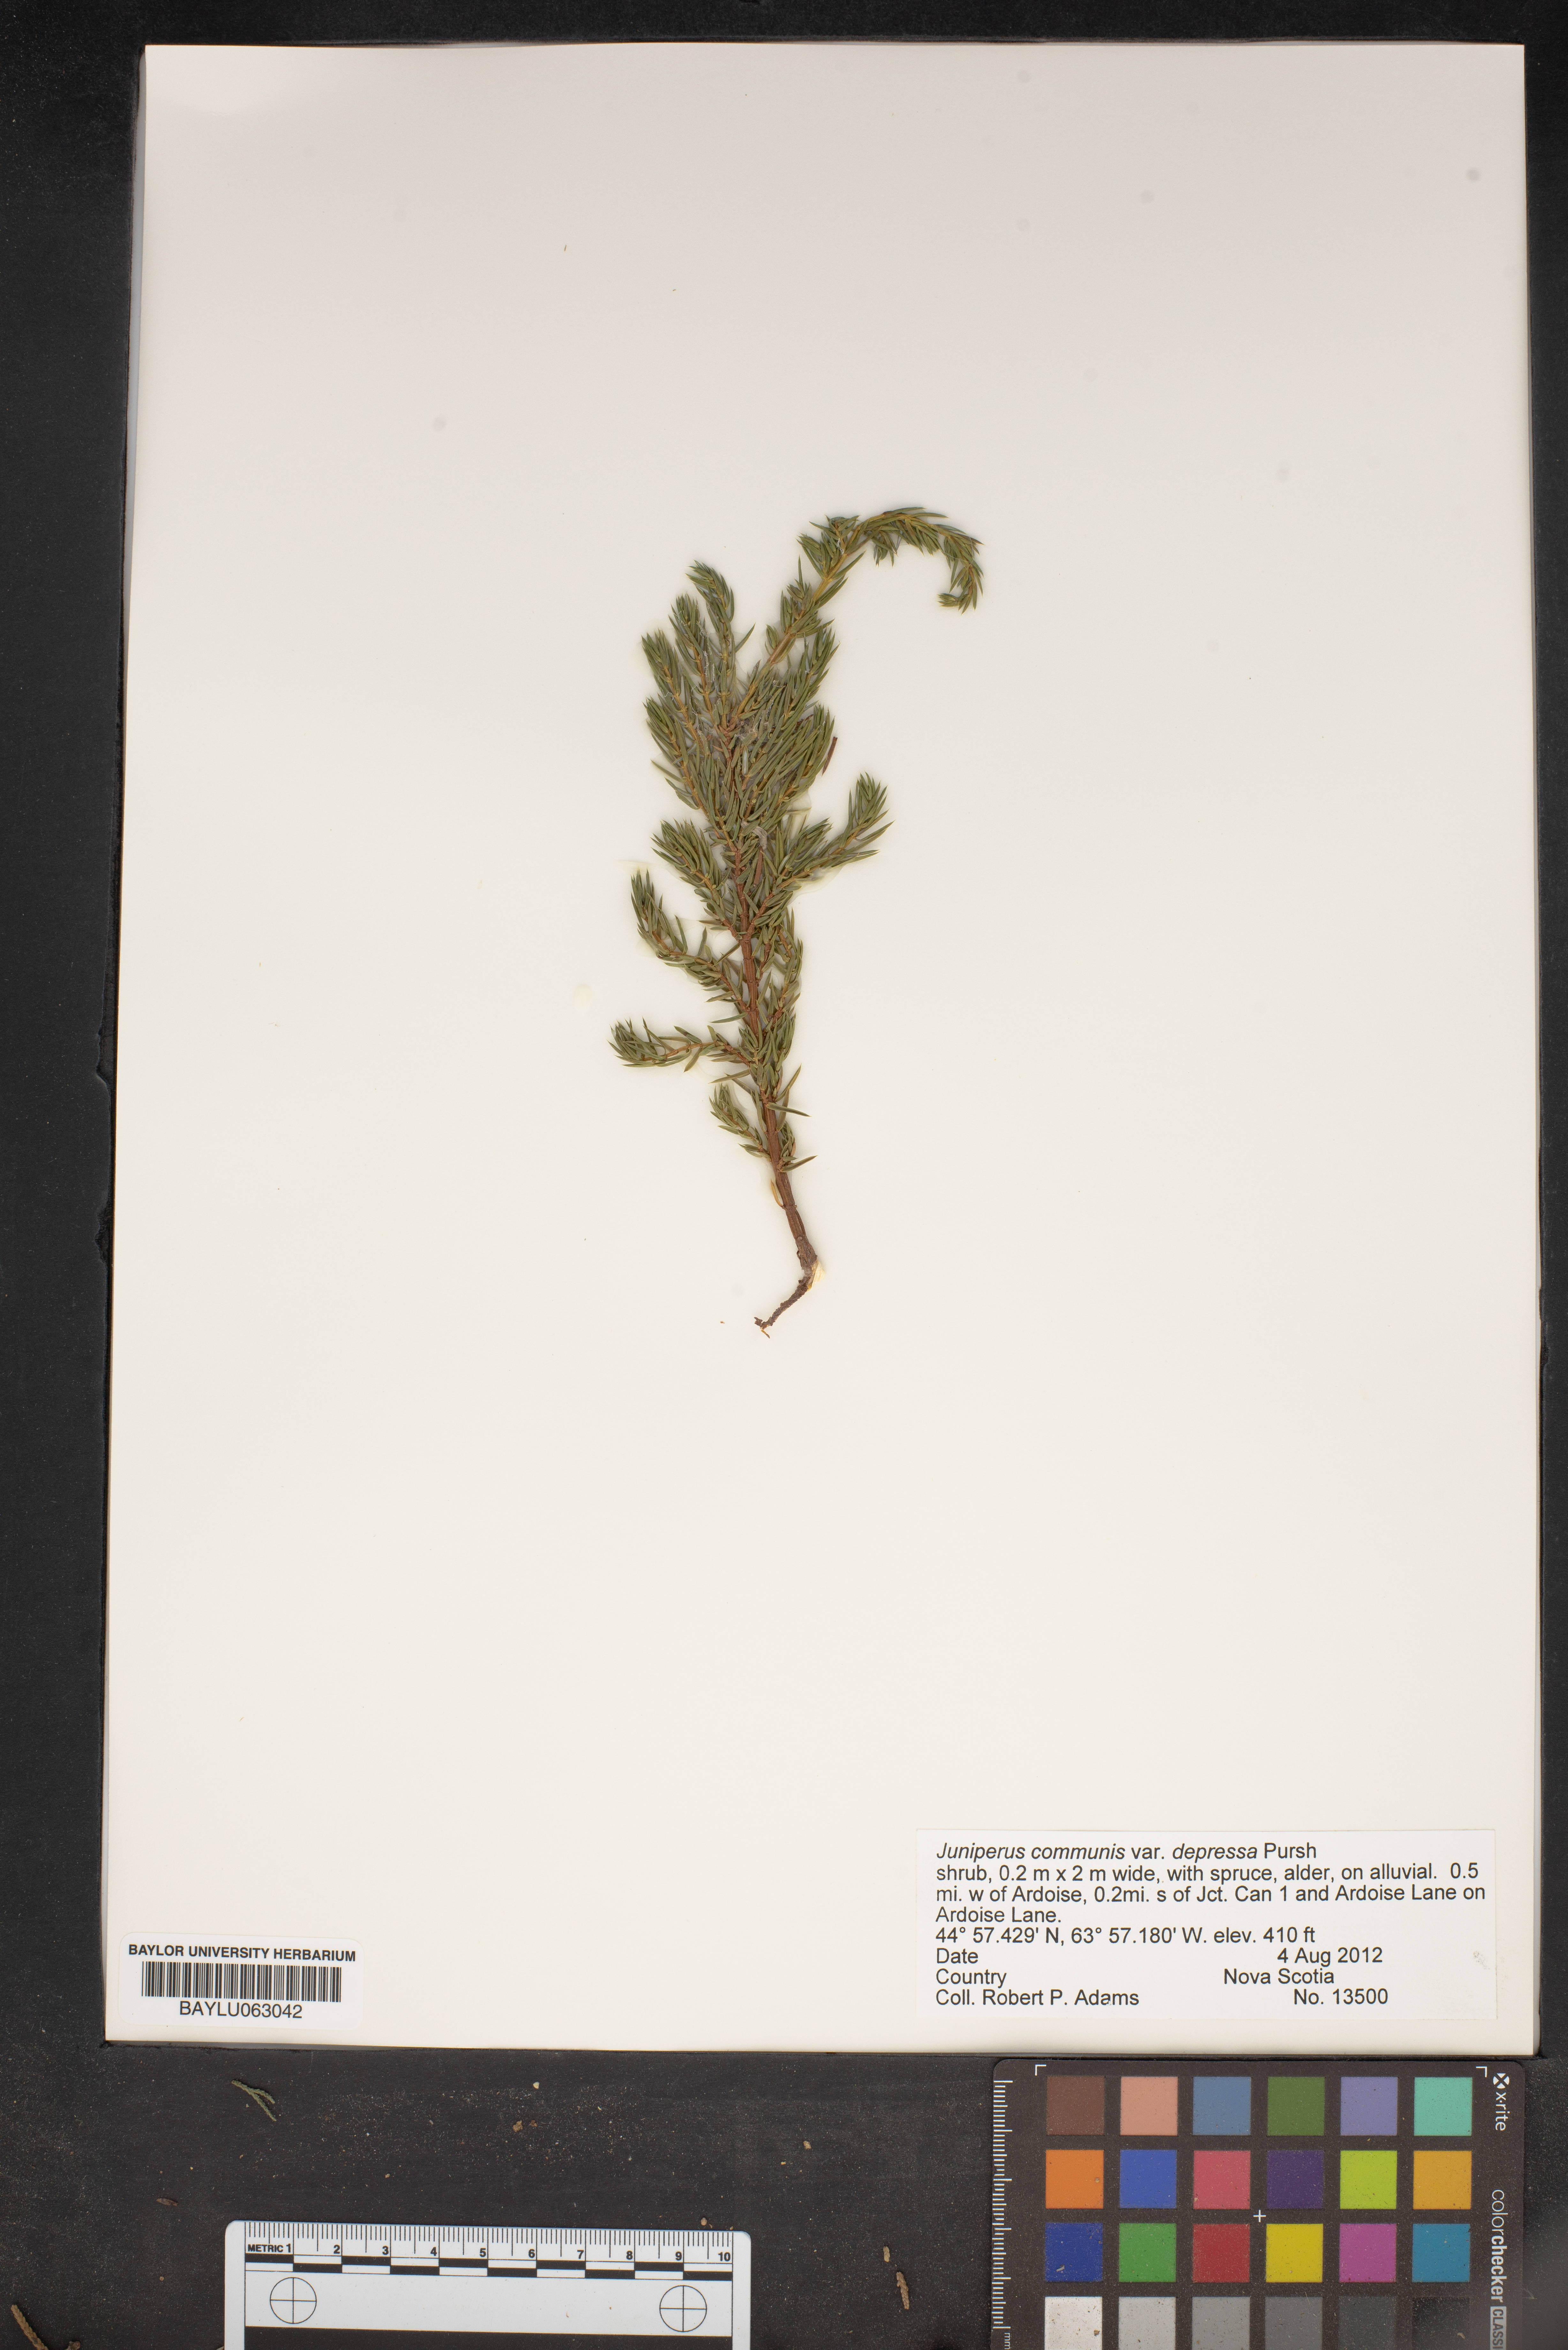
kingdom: Plantae
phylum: Tracheophyta
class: Pinopsida
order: Pinales
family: Cupressaceae
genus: Juniperus
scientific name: Juniperus communis
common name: Common juniper
